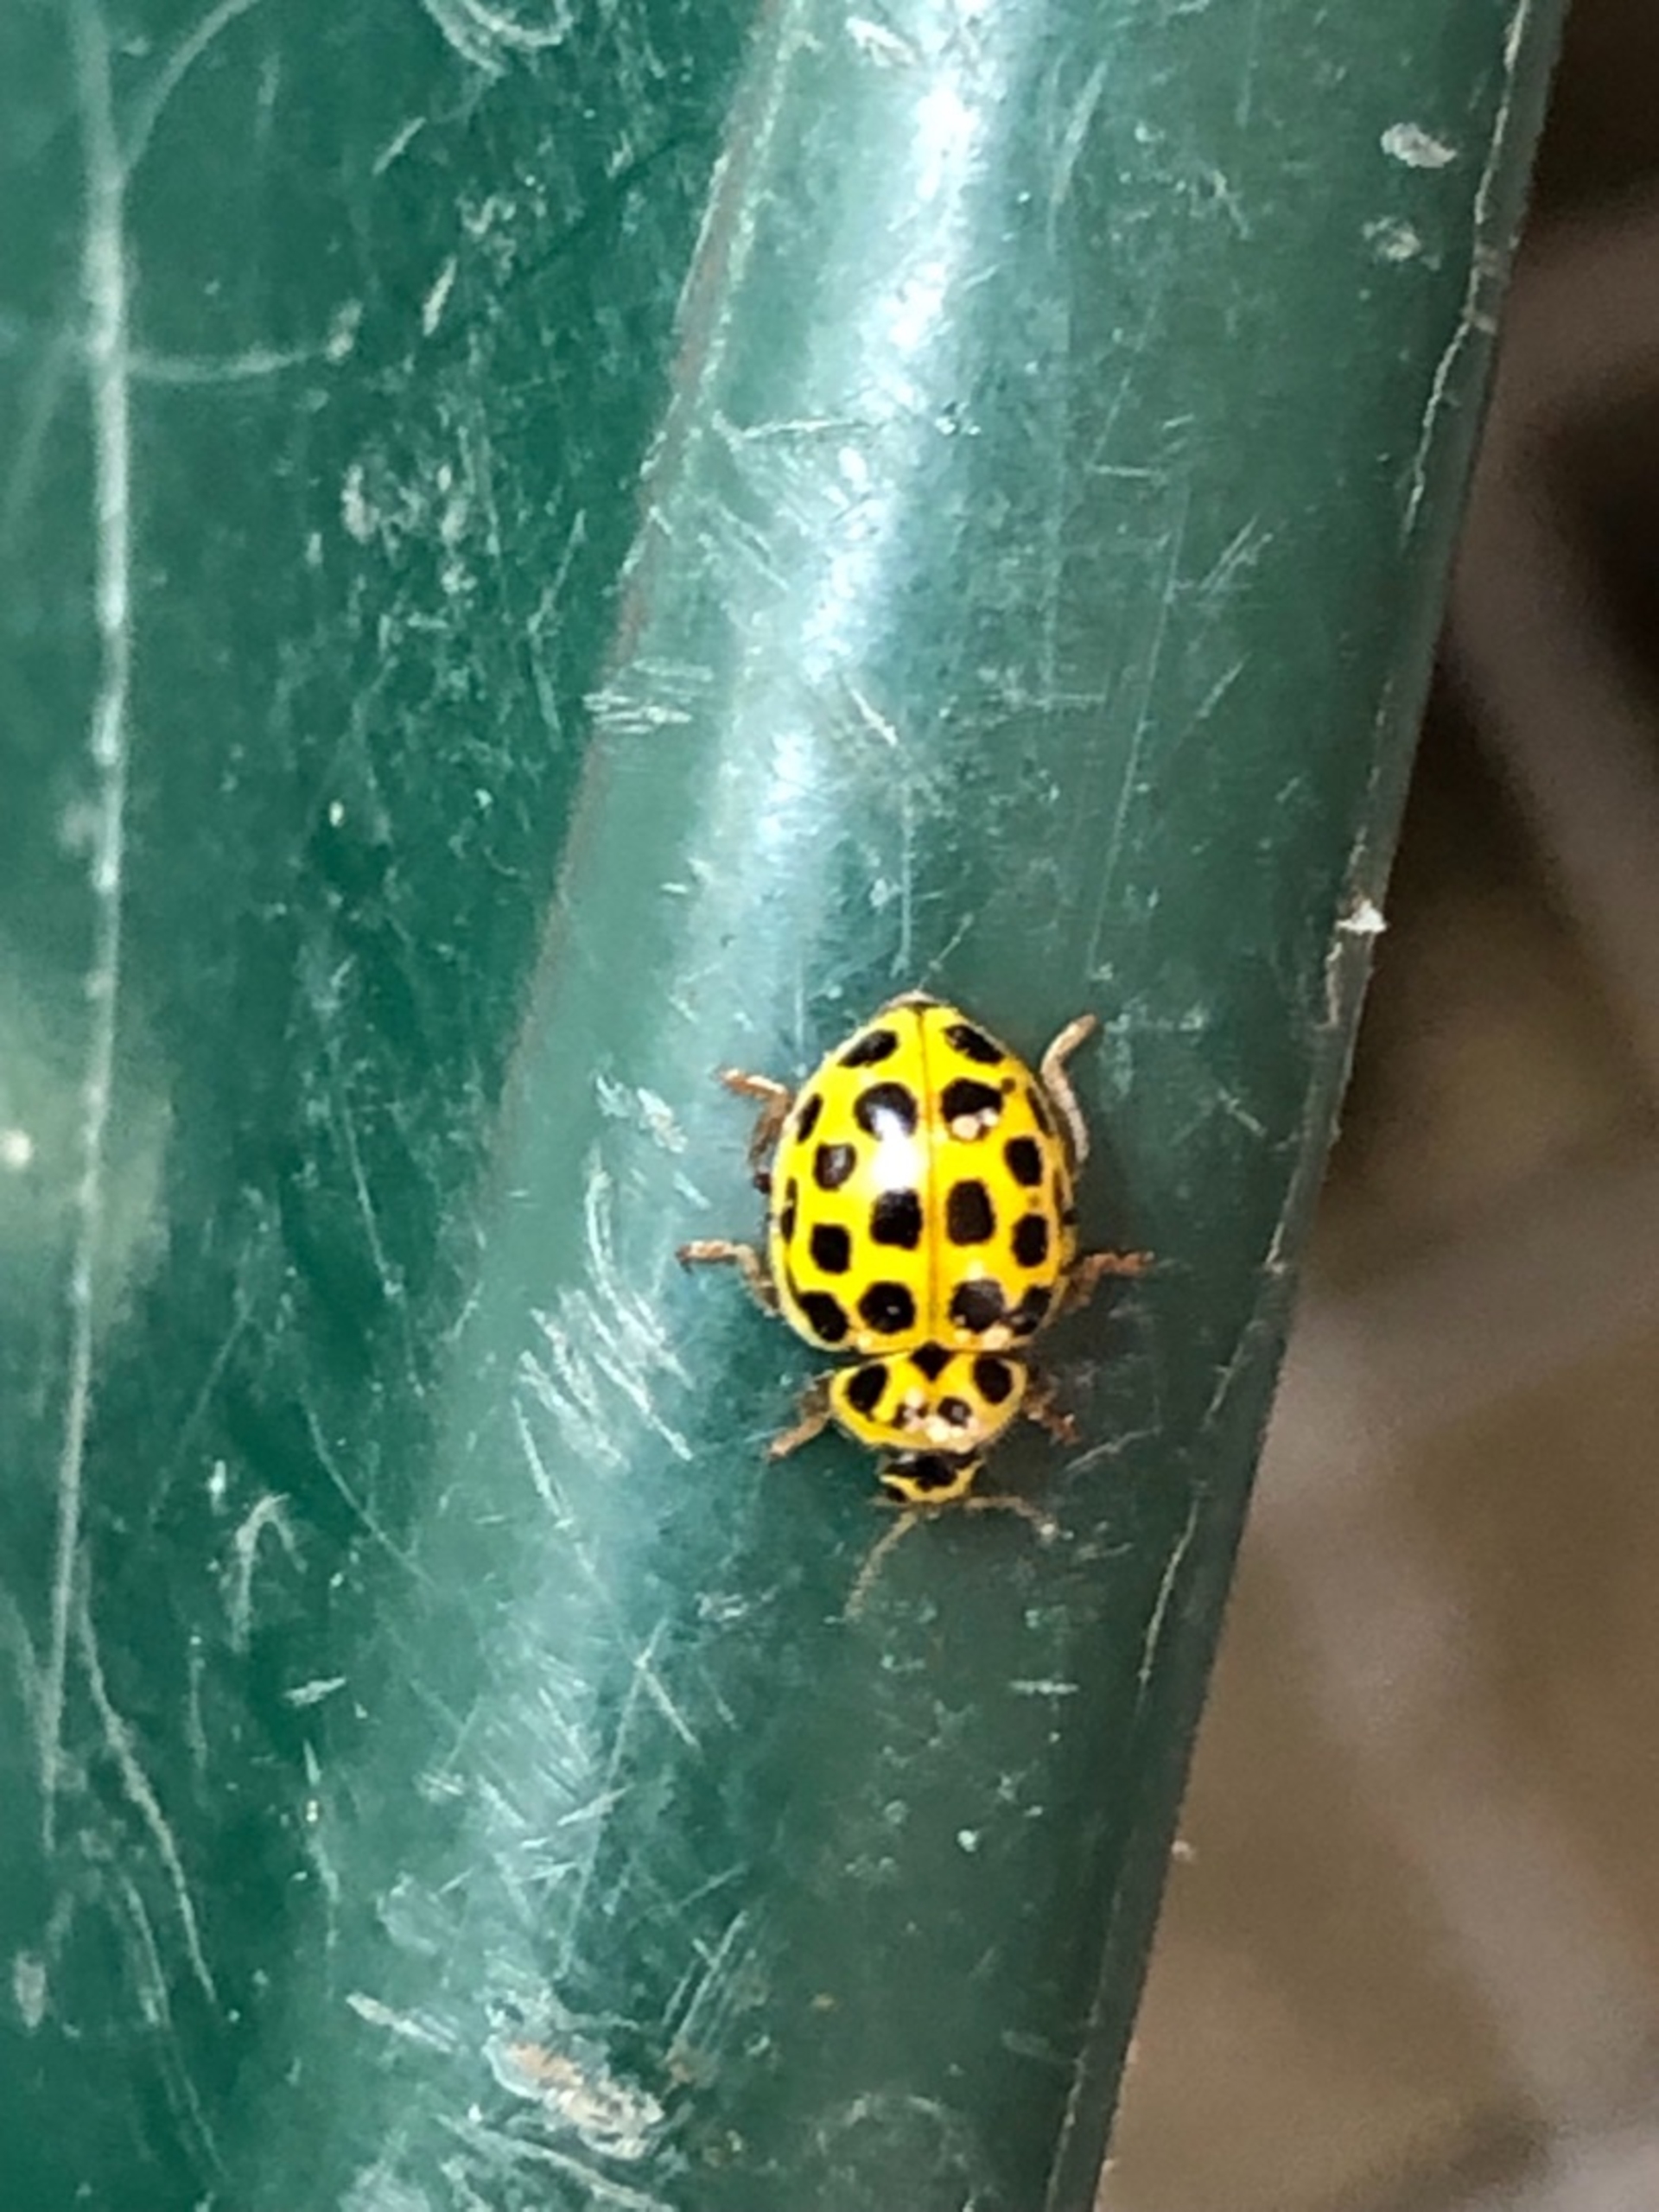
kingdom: Animalia
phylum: Arthropoda
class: Insecta
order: Coleoptera
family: Coccinellidae
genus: Psyllobora
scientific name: Psyllobora vigintiduopunctata
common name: Toogtyveplettet mariehøne
